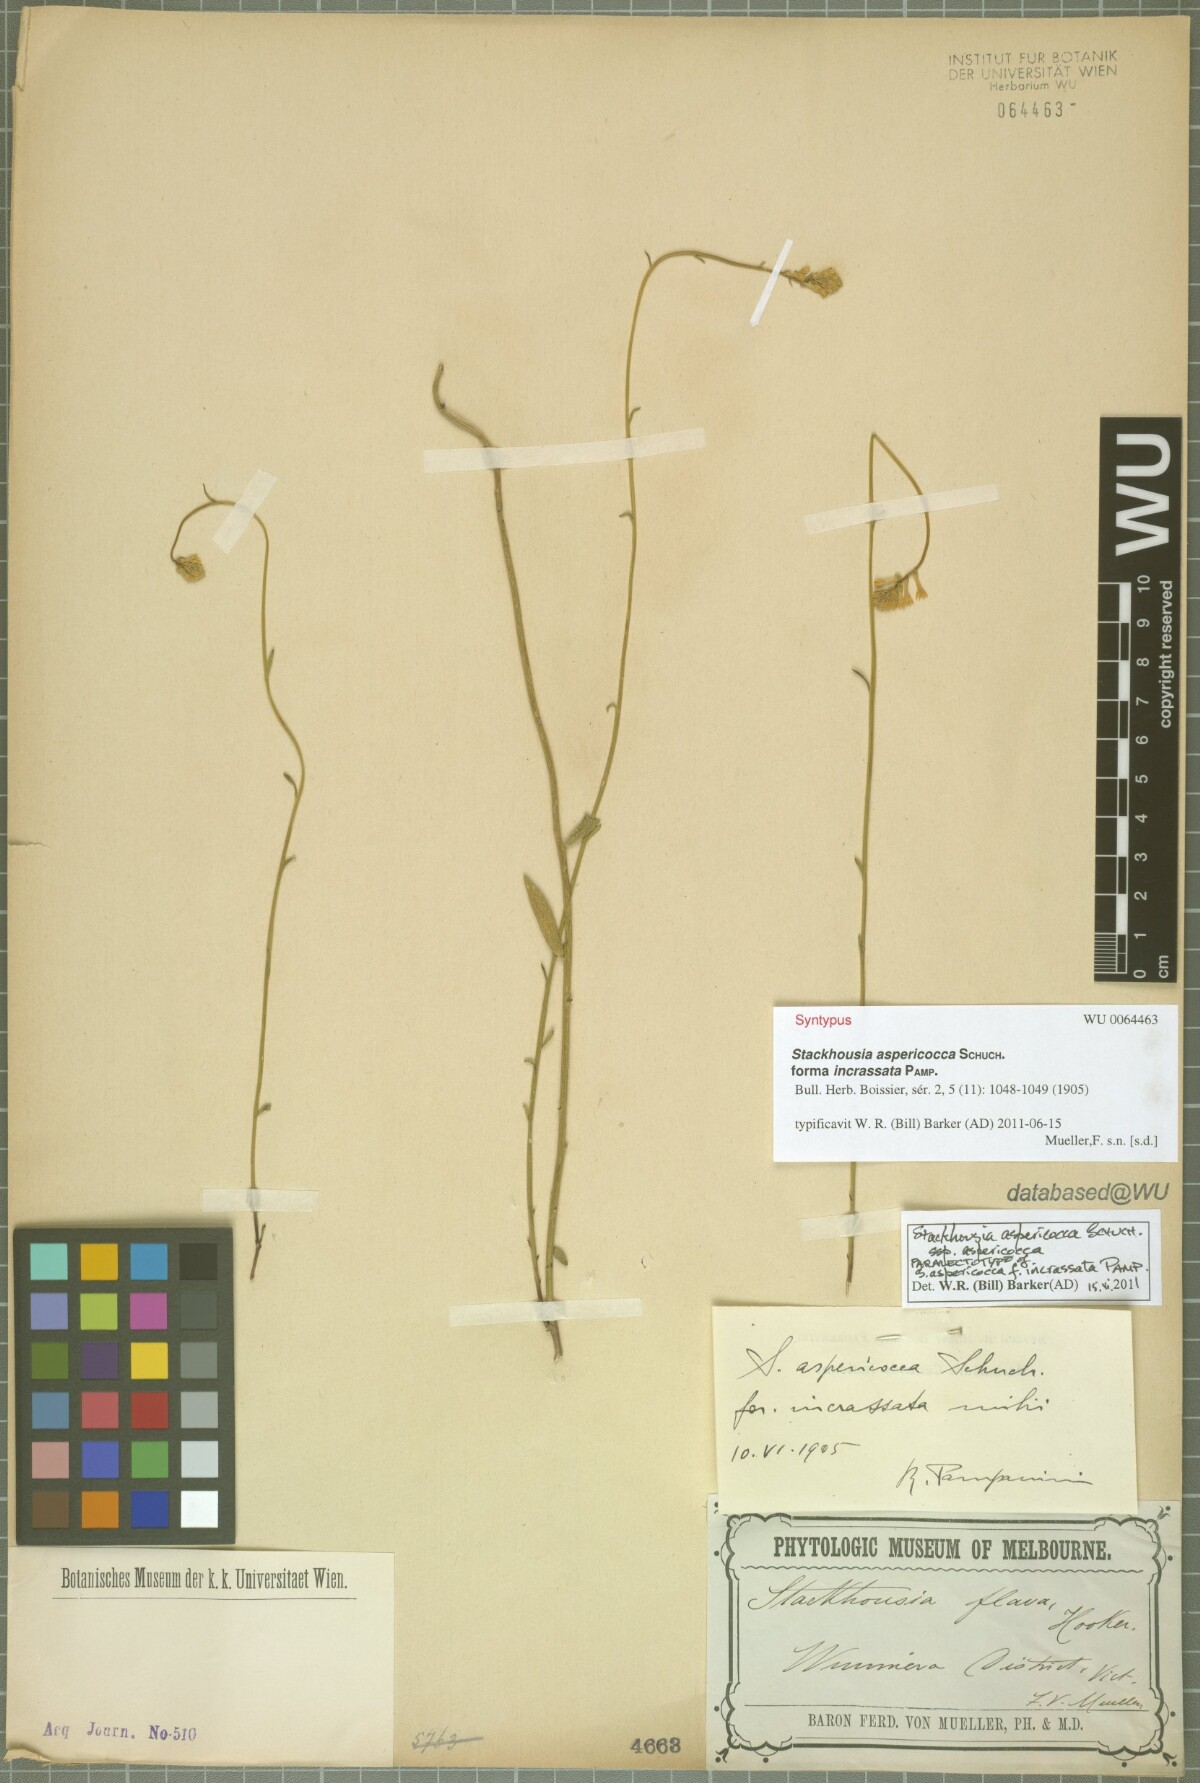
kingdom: Plantae
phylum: Tracheophyta
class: Magnoliopsida
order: Celastrales
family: Celastraceae
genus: Stackhousia
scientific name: Stackhousia monogyna
